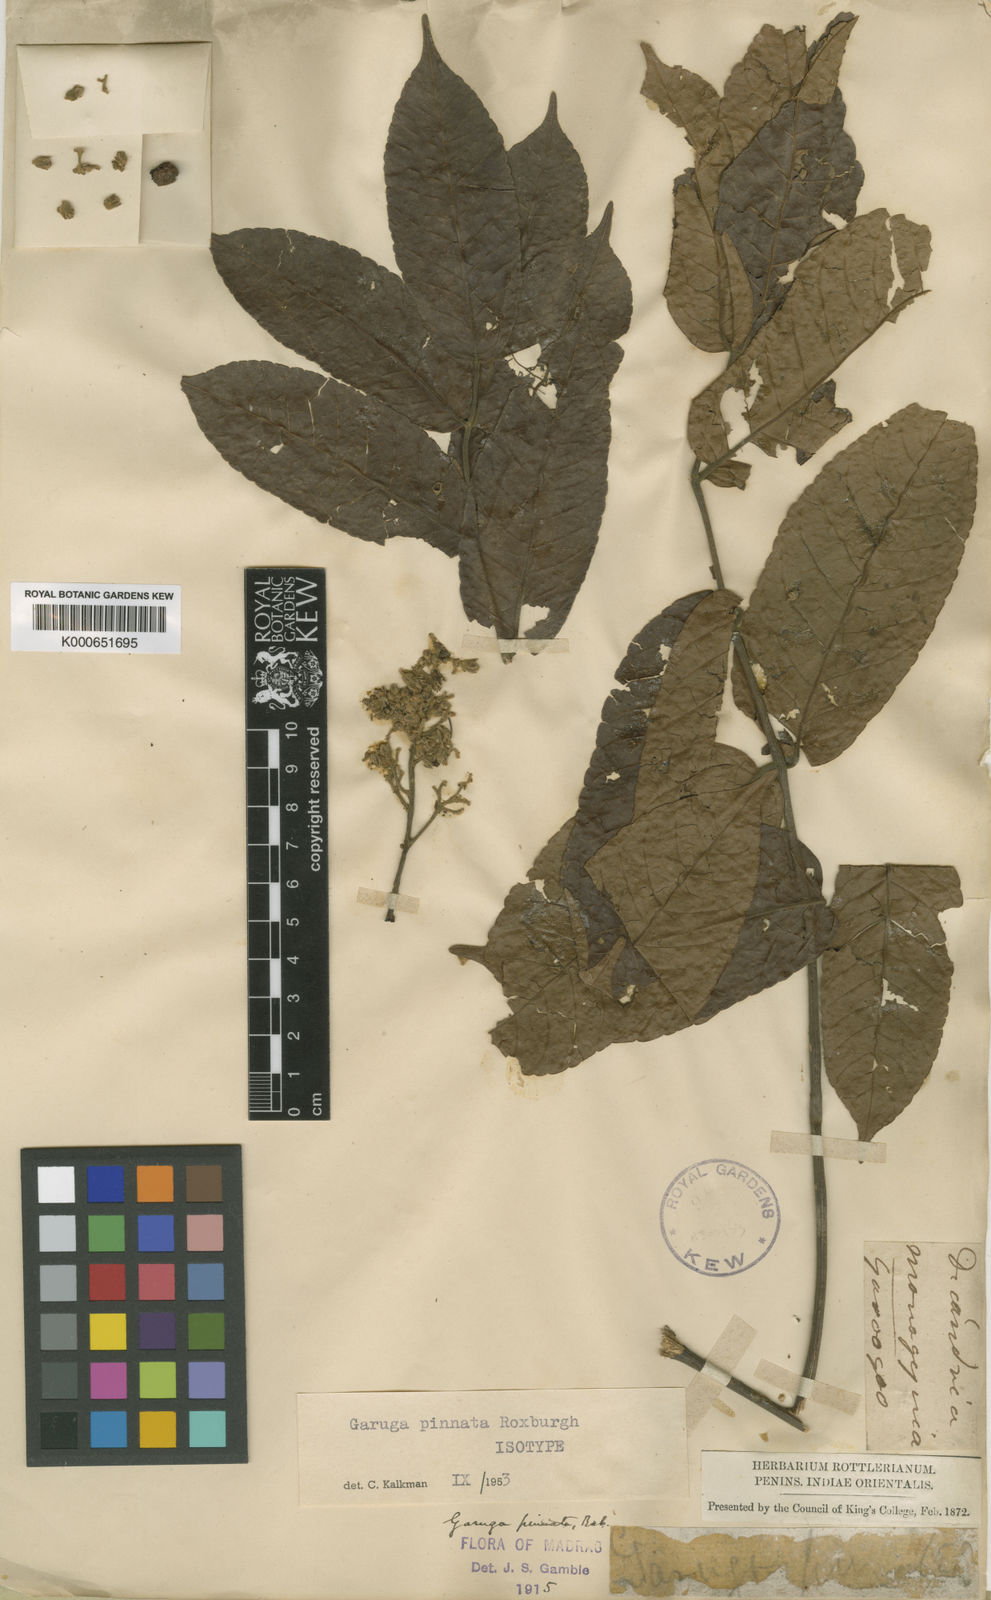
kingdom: Plantae
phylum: Tracheophyta
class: Magnoliopsida
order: Sapindales
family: Burseraceae
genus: Garuga
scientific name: Garuga pinnata
